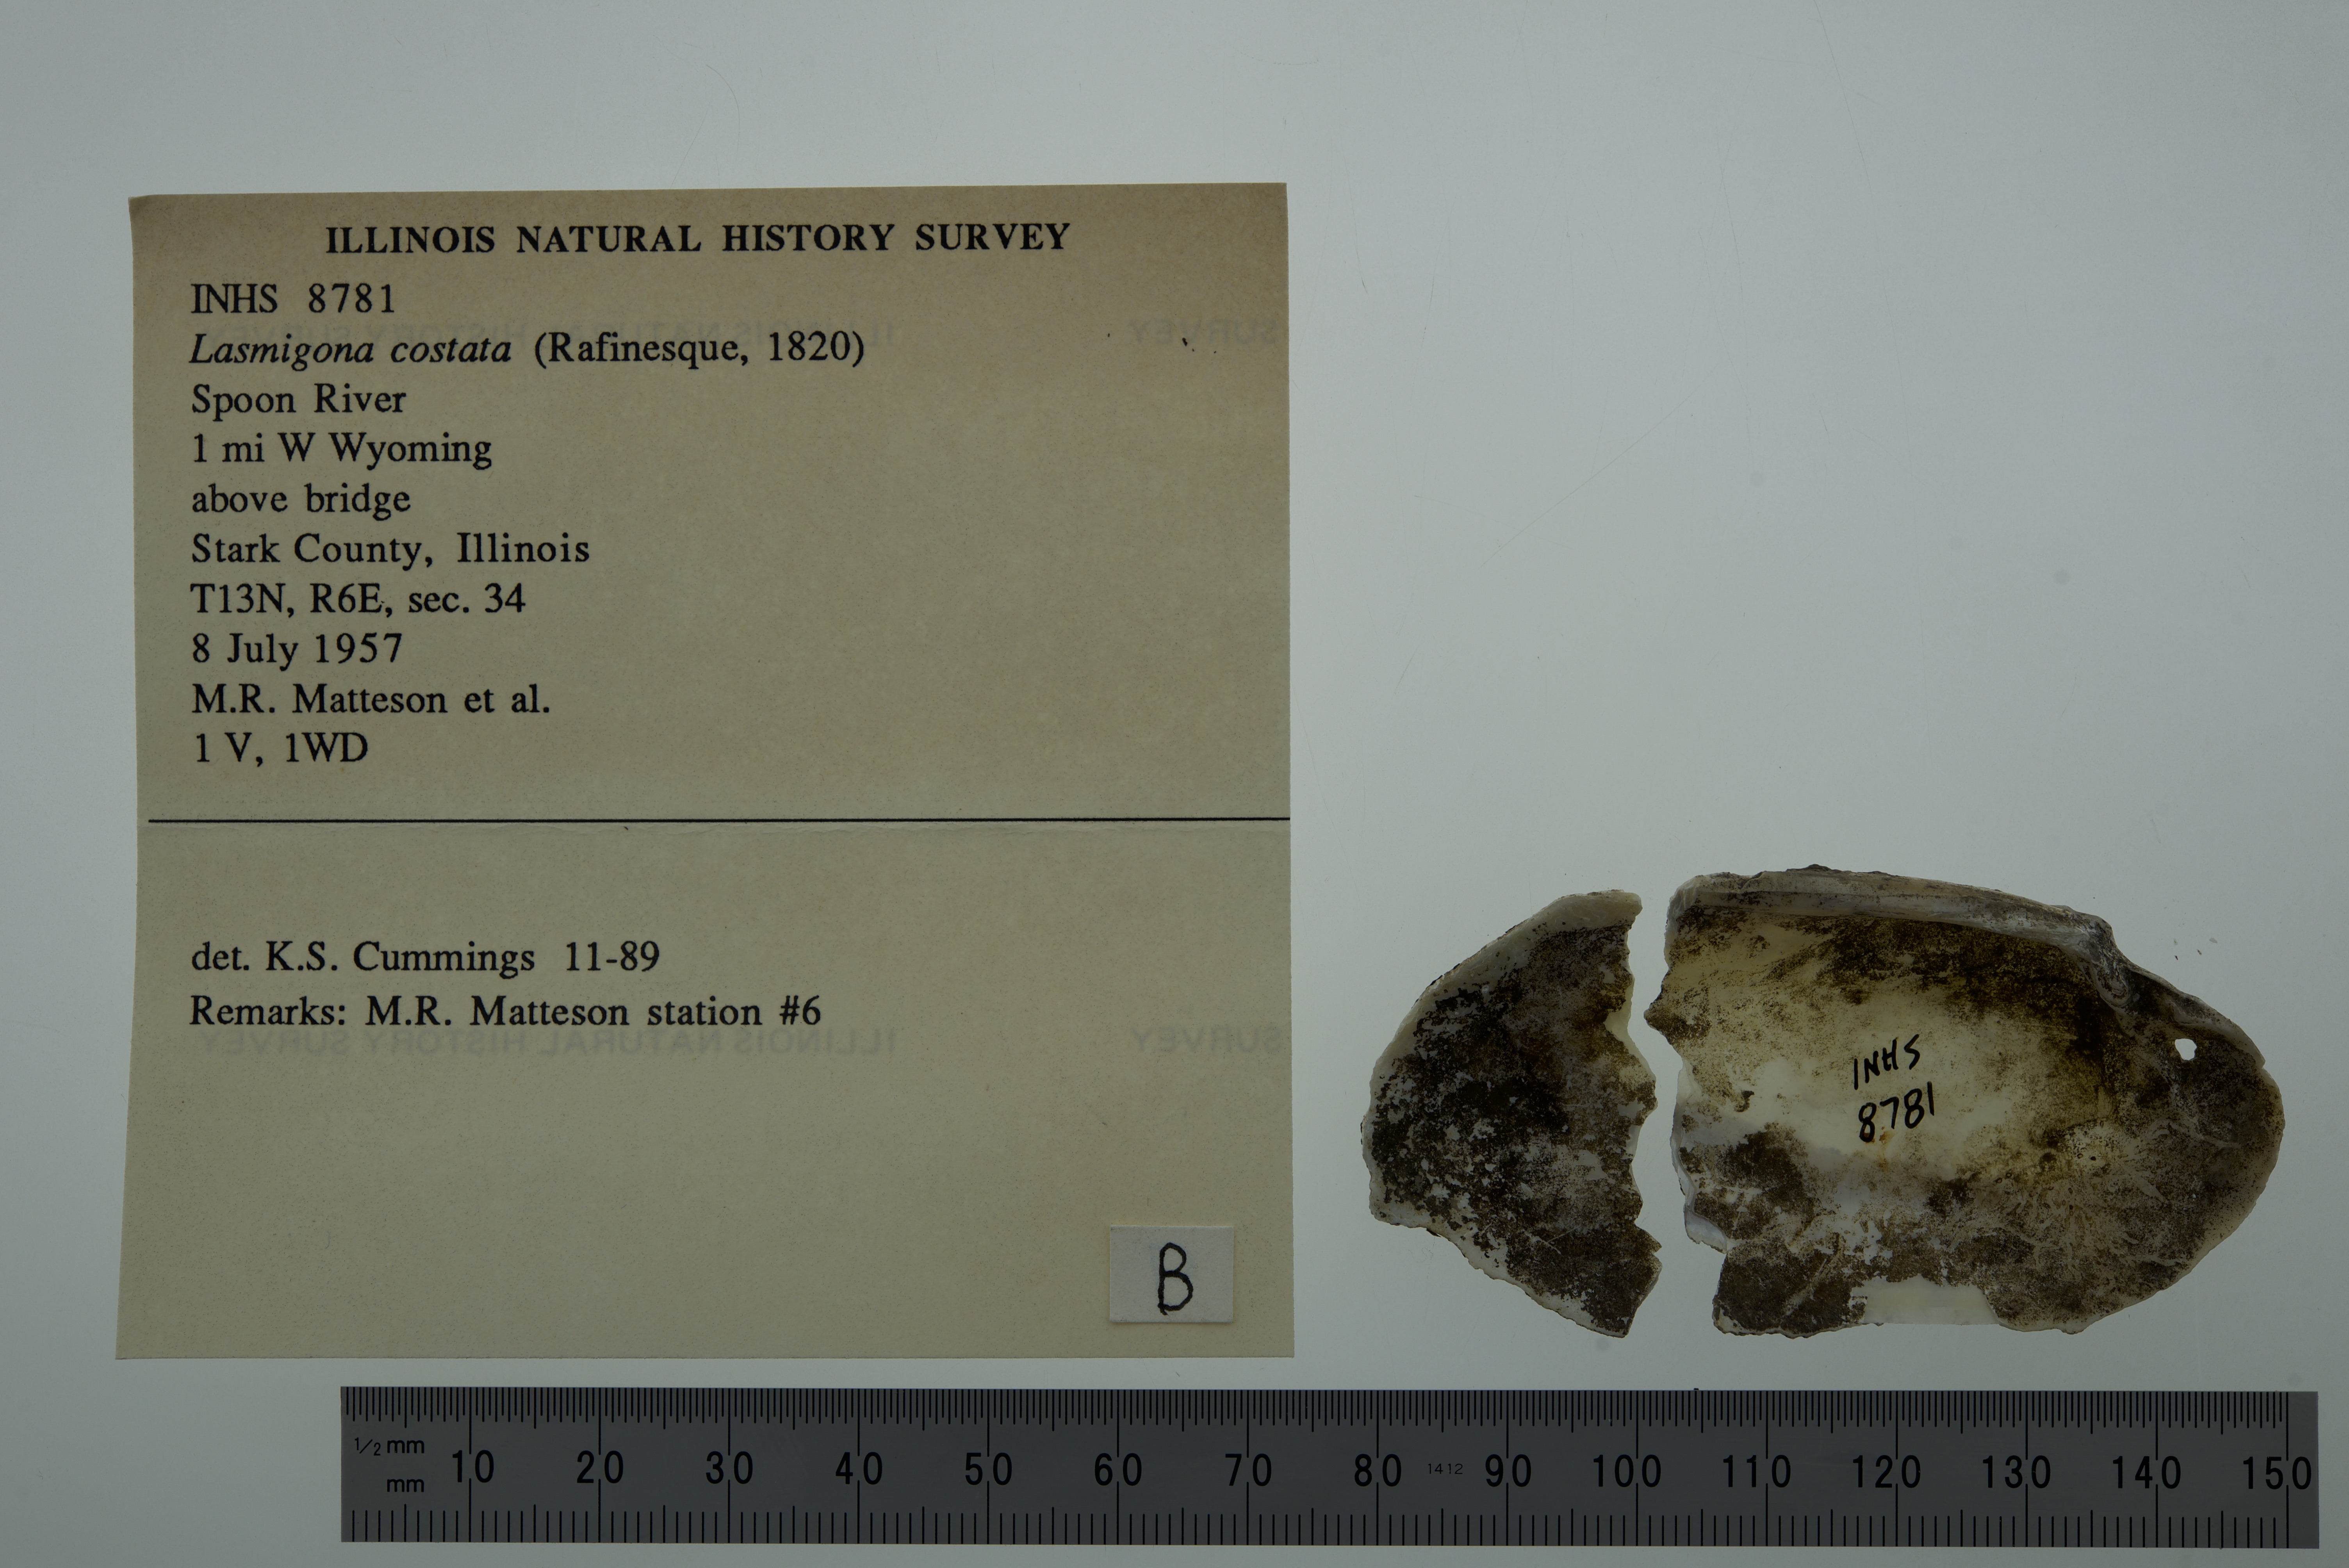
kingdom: Animalia
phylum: Mollusca
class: Bivalvia
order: Unionida
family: Unionidae
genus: Lasmigona
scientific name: Lasmigona costata
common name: Flutedshell
